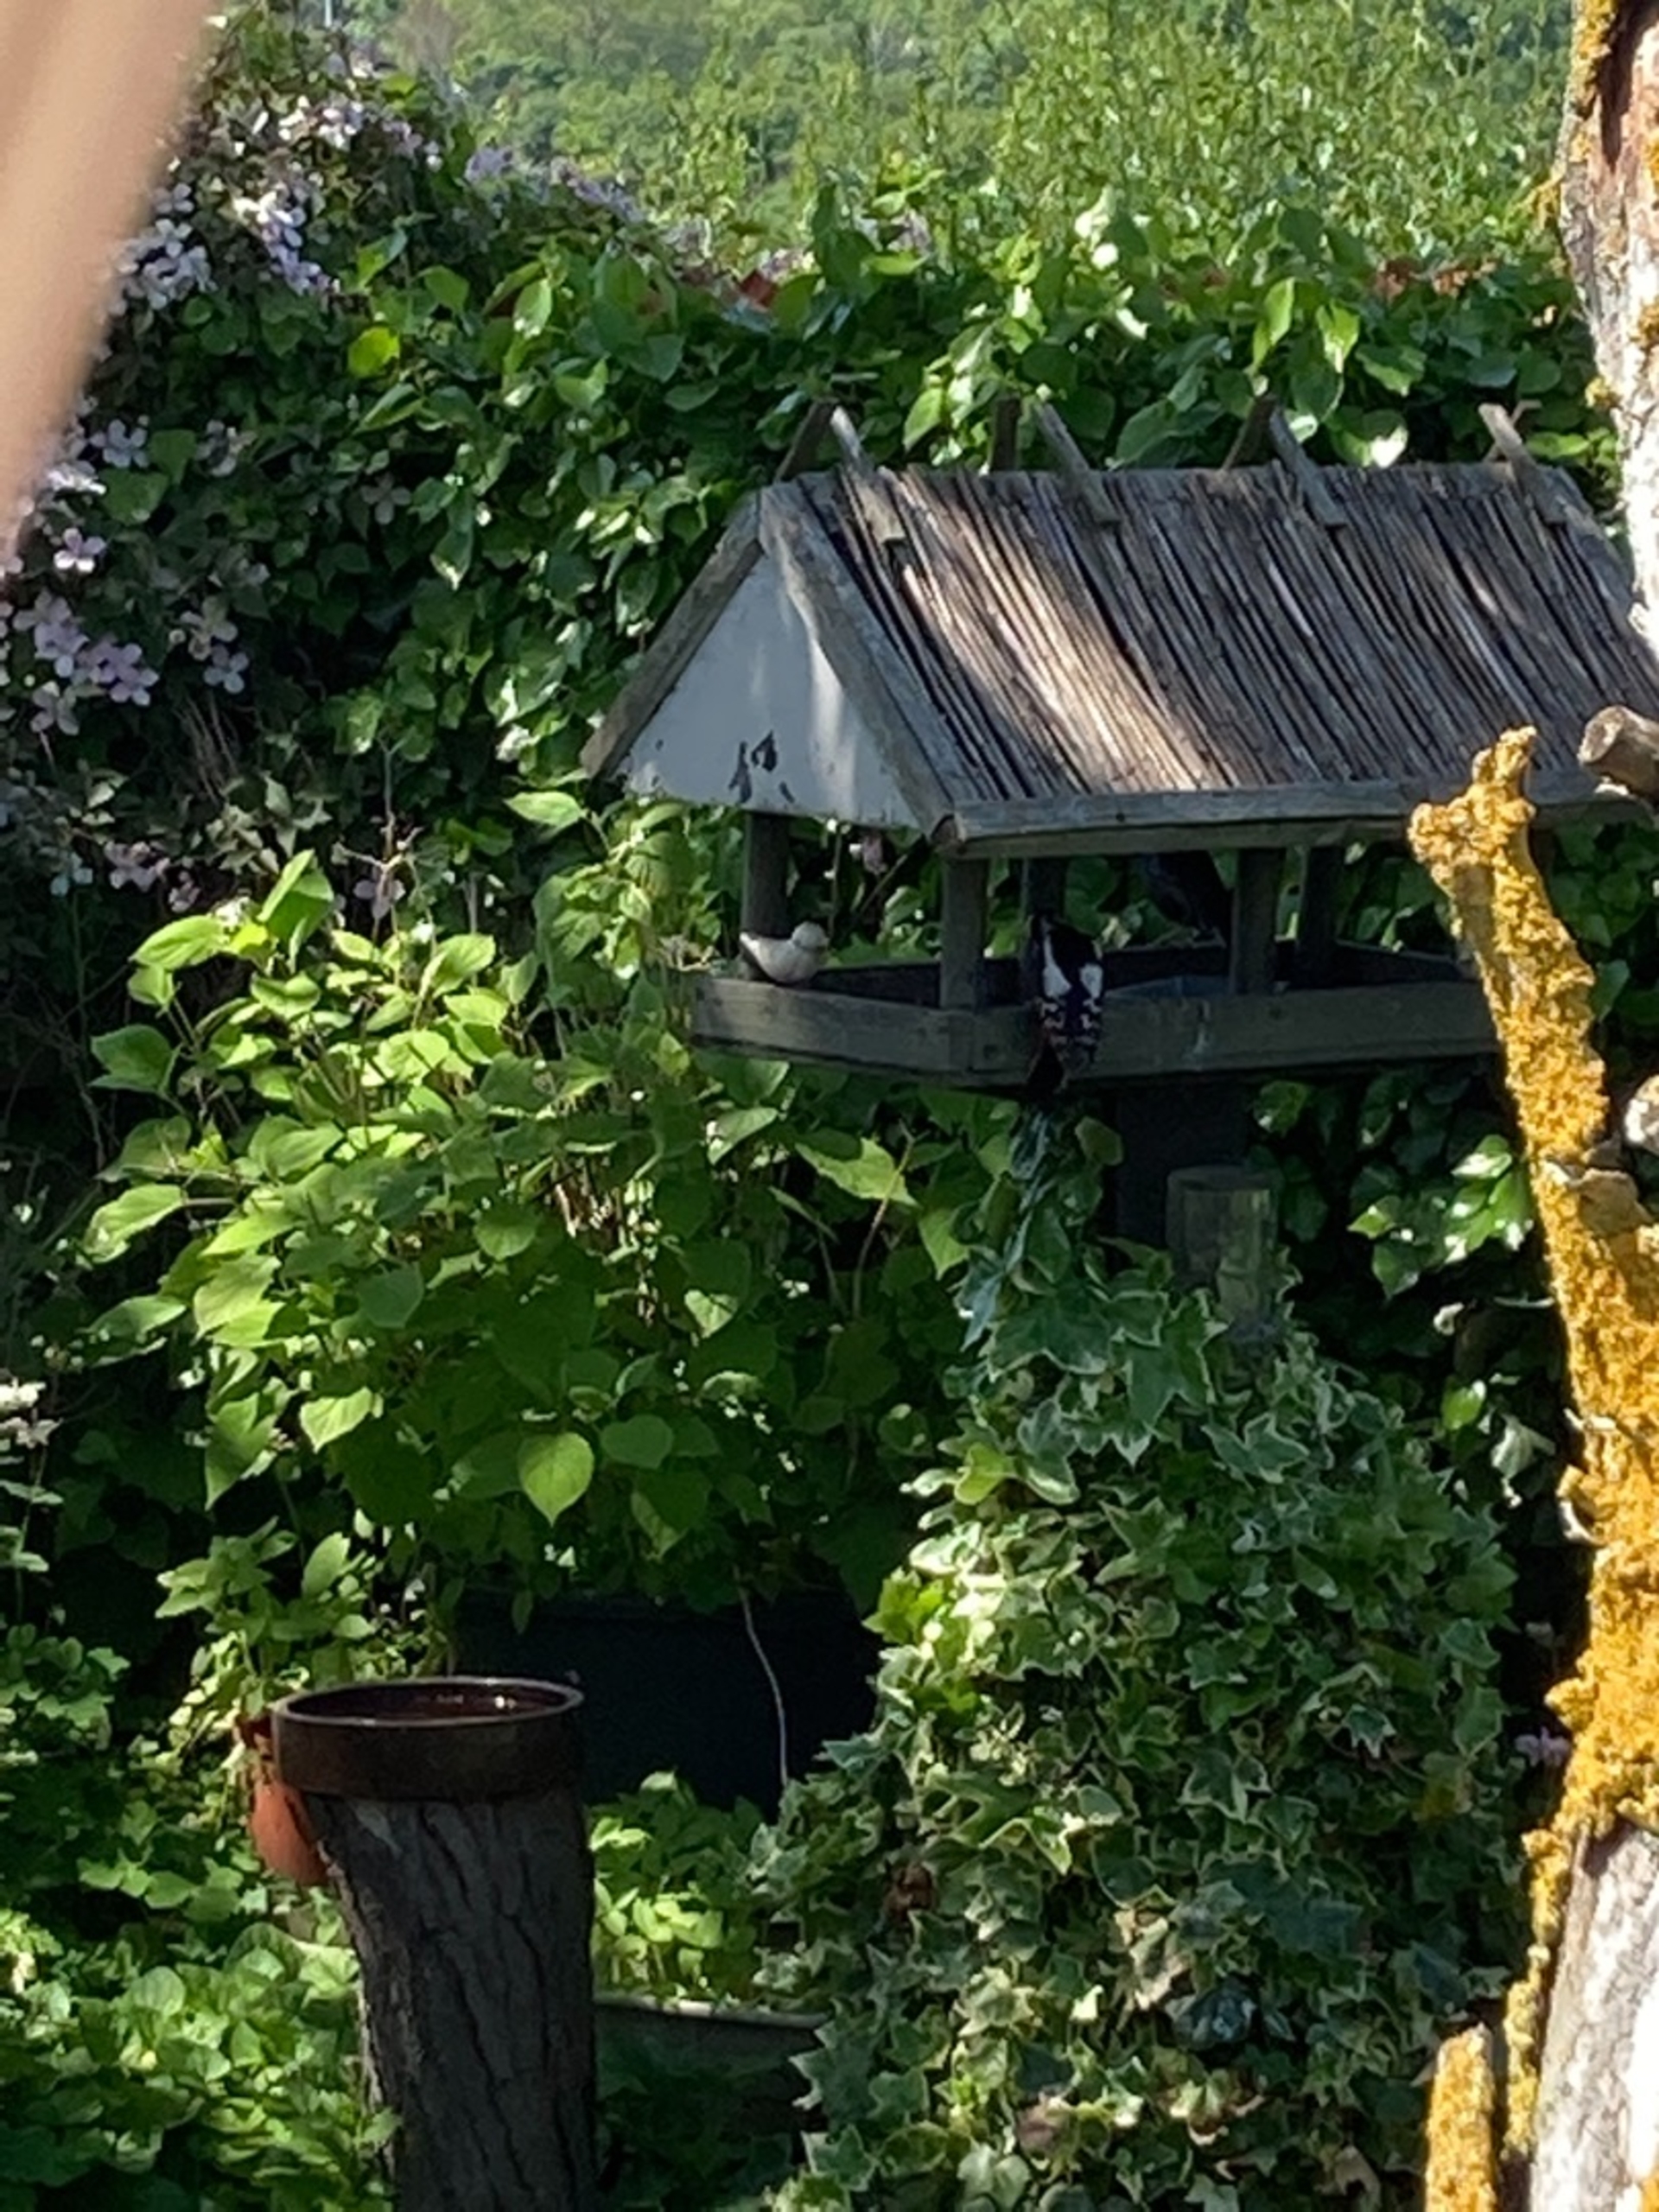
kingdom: Animalia
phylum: Chordata
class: Aves
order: Piciformes
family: Picidae
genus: Dendrocopos
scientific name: Dendrocopos major
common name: Stor flagspætte
